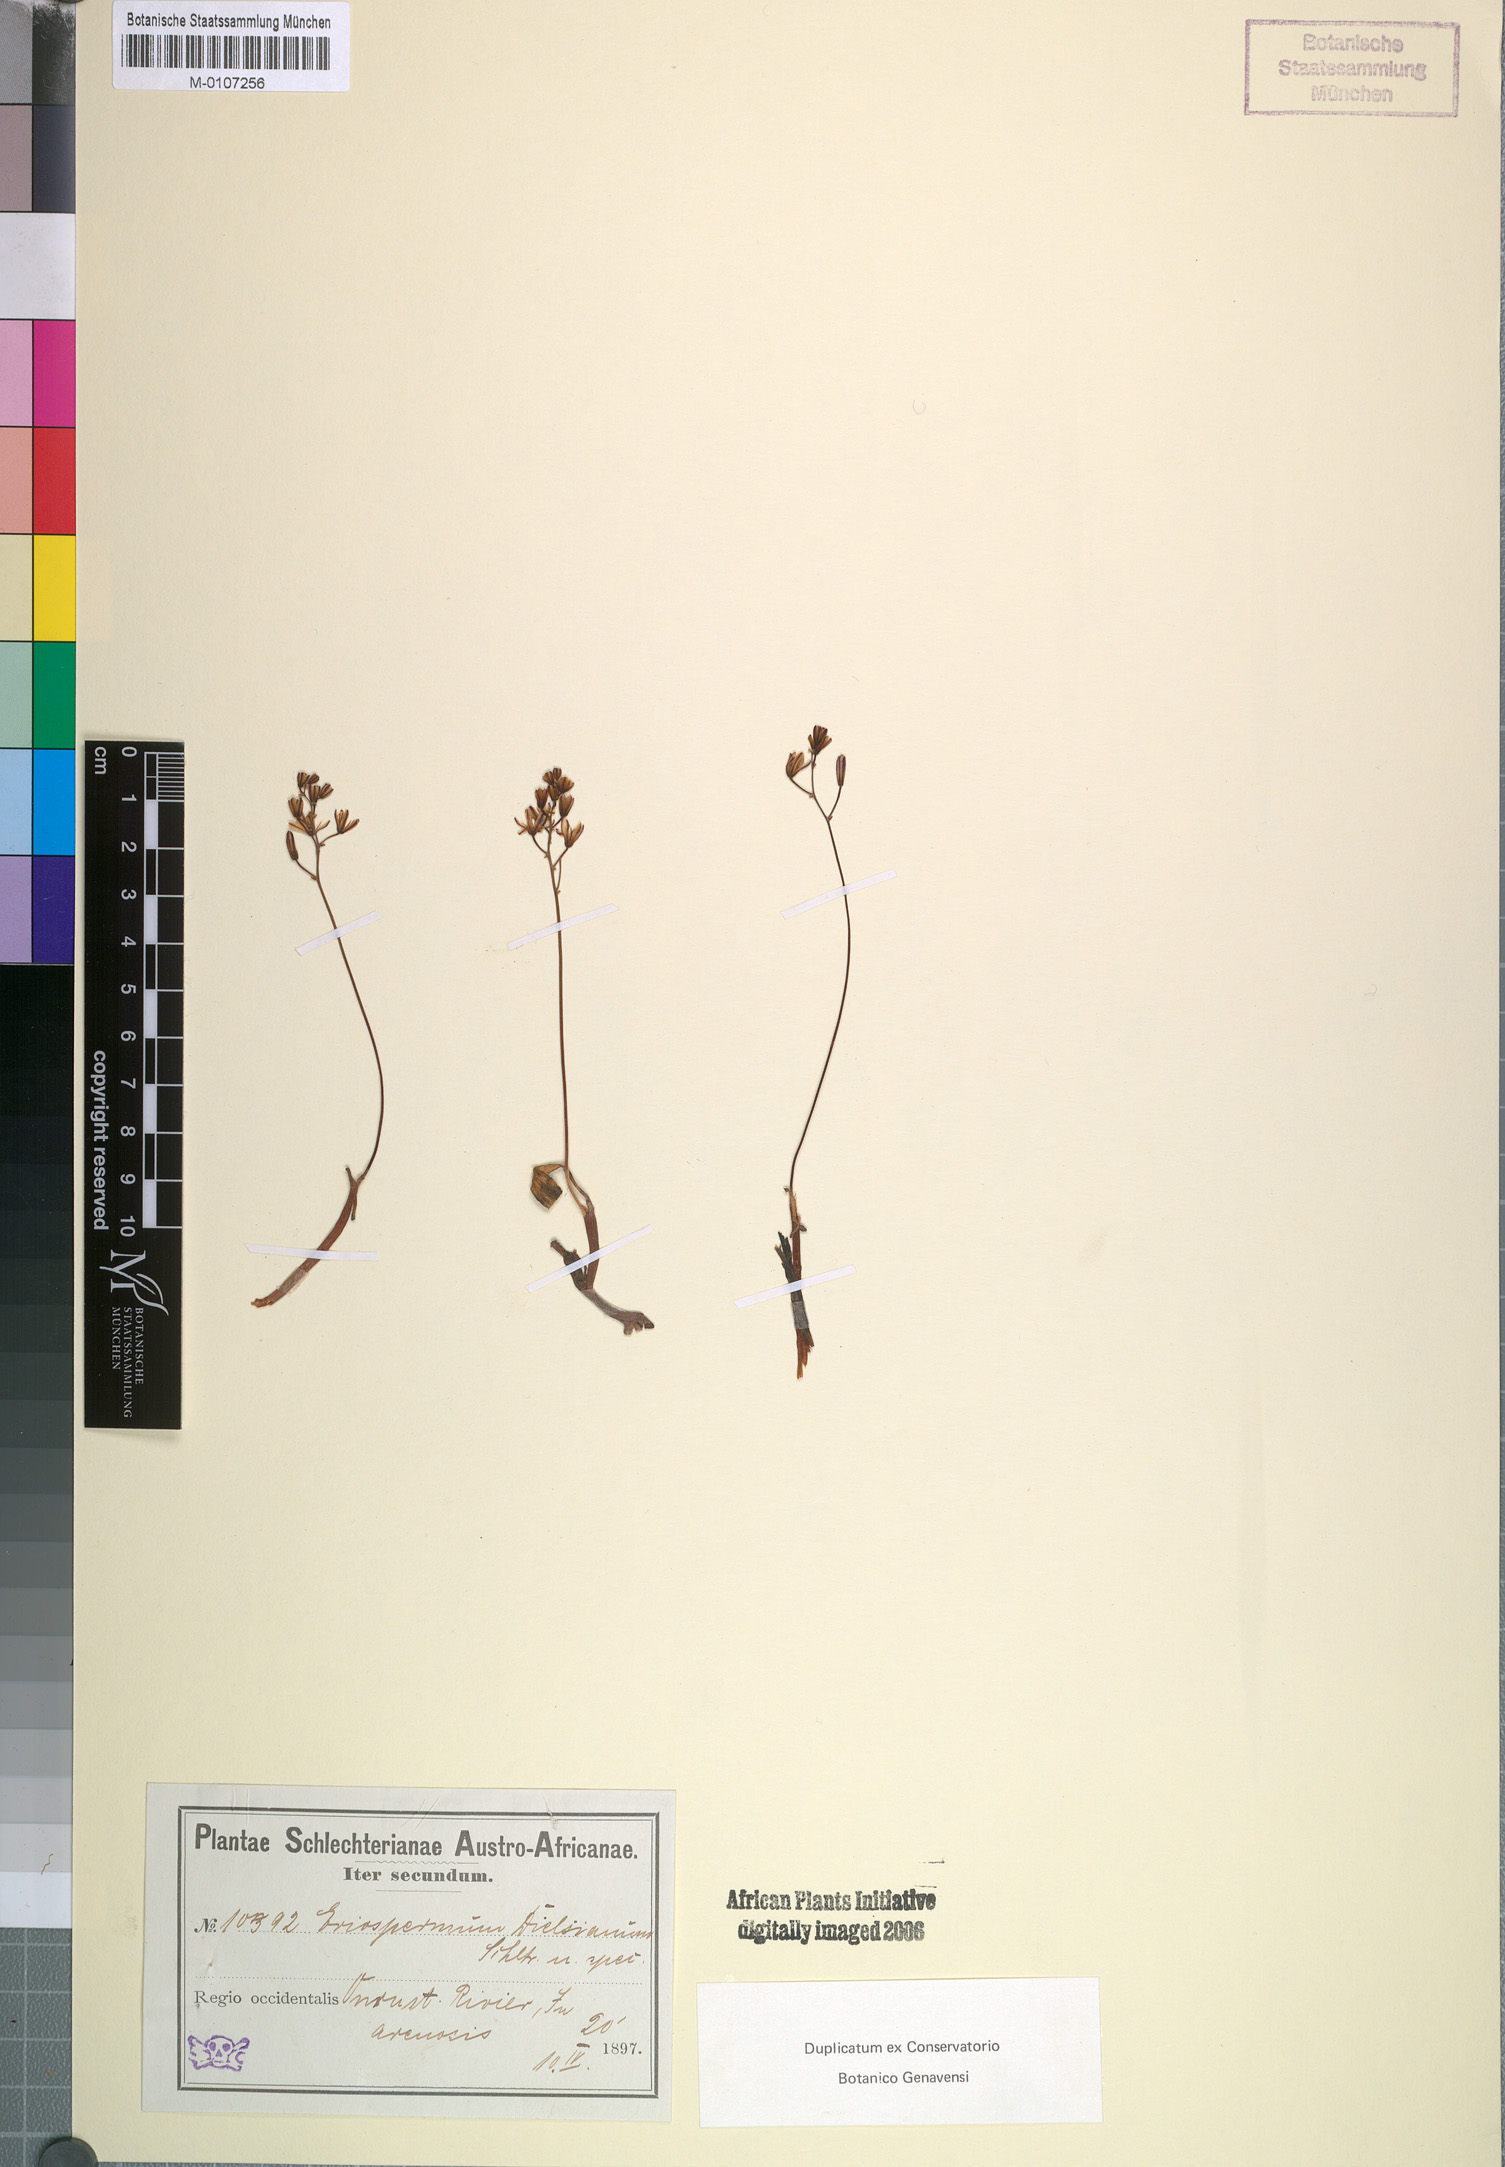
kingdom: Plantae
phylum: Tracheophyta
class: Liliopsida
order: Asparagales
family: Asparagaceae
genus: Eriospermum
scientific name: Eriospermum dielsianum
